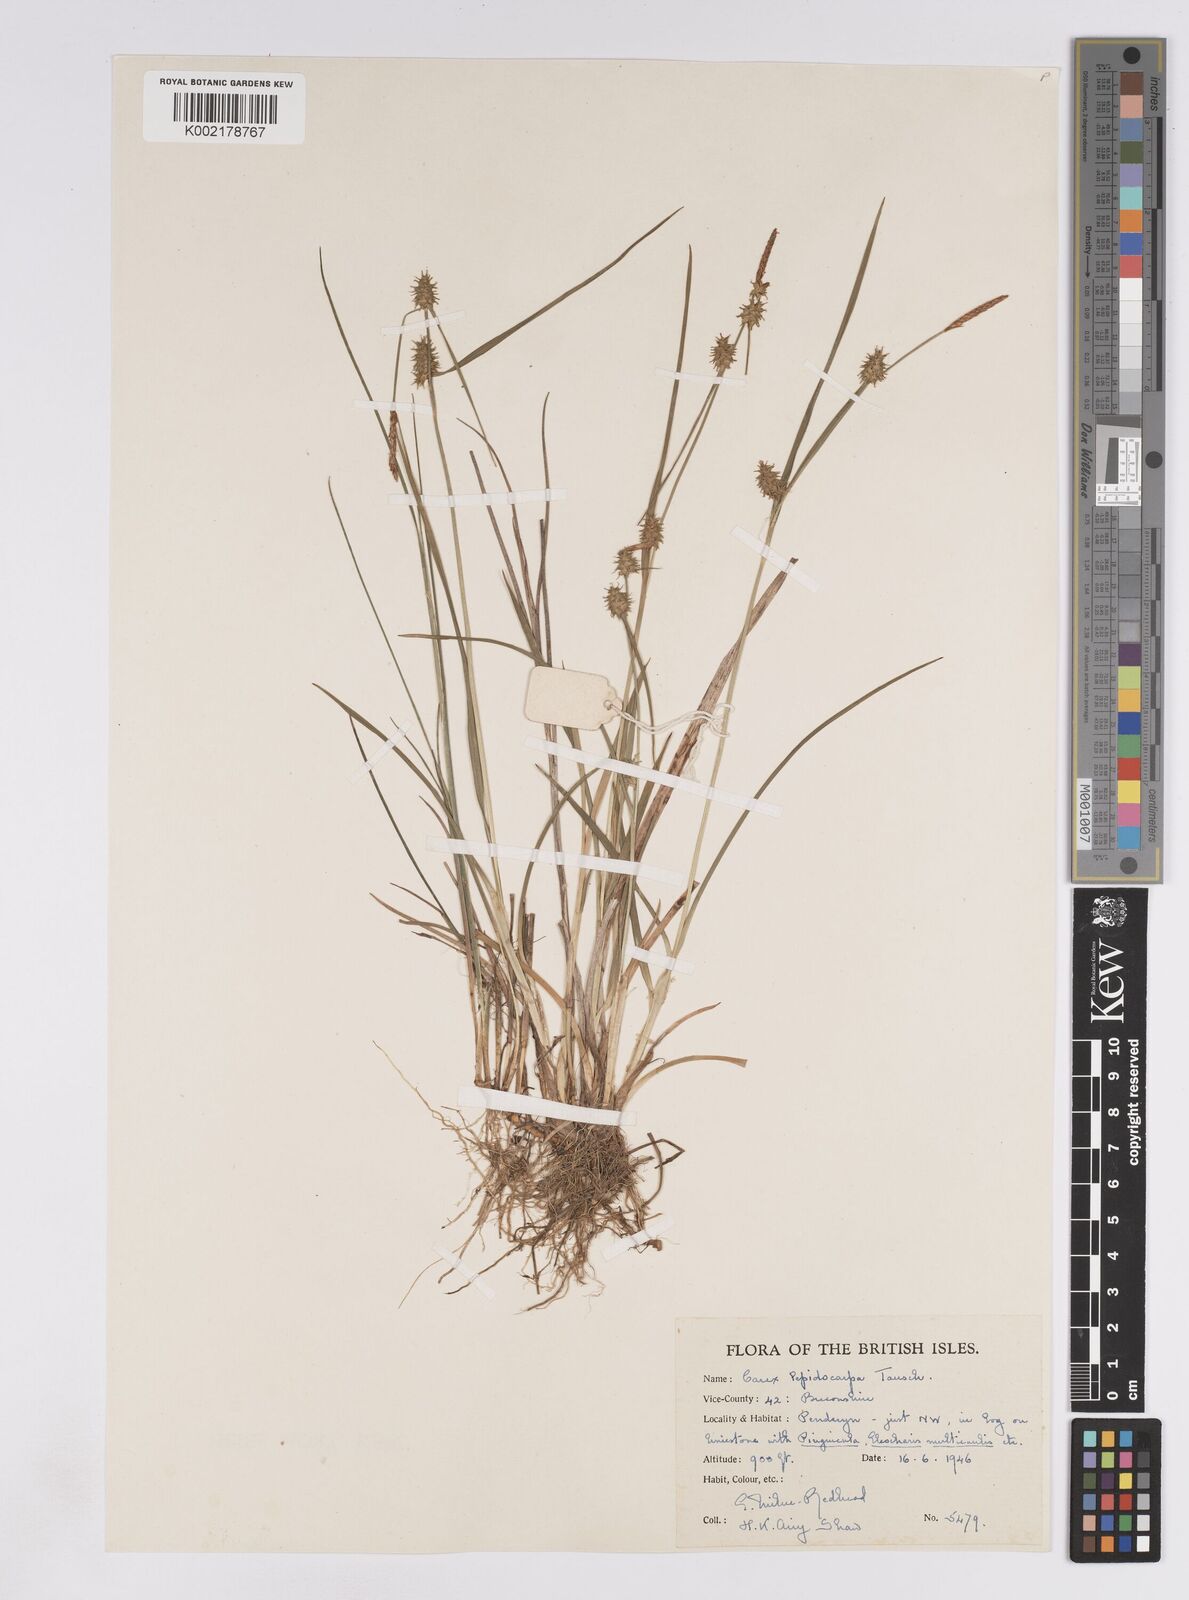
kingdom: Plantae
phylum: Tracheophyta
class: Liliopsida
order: Poales
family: Cyperaceae
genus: Carex
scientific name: Carex lepidocarpa
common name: Long-stalked yellow-sedge
